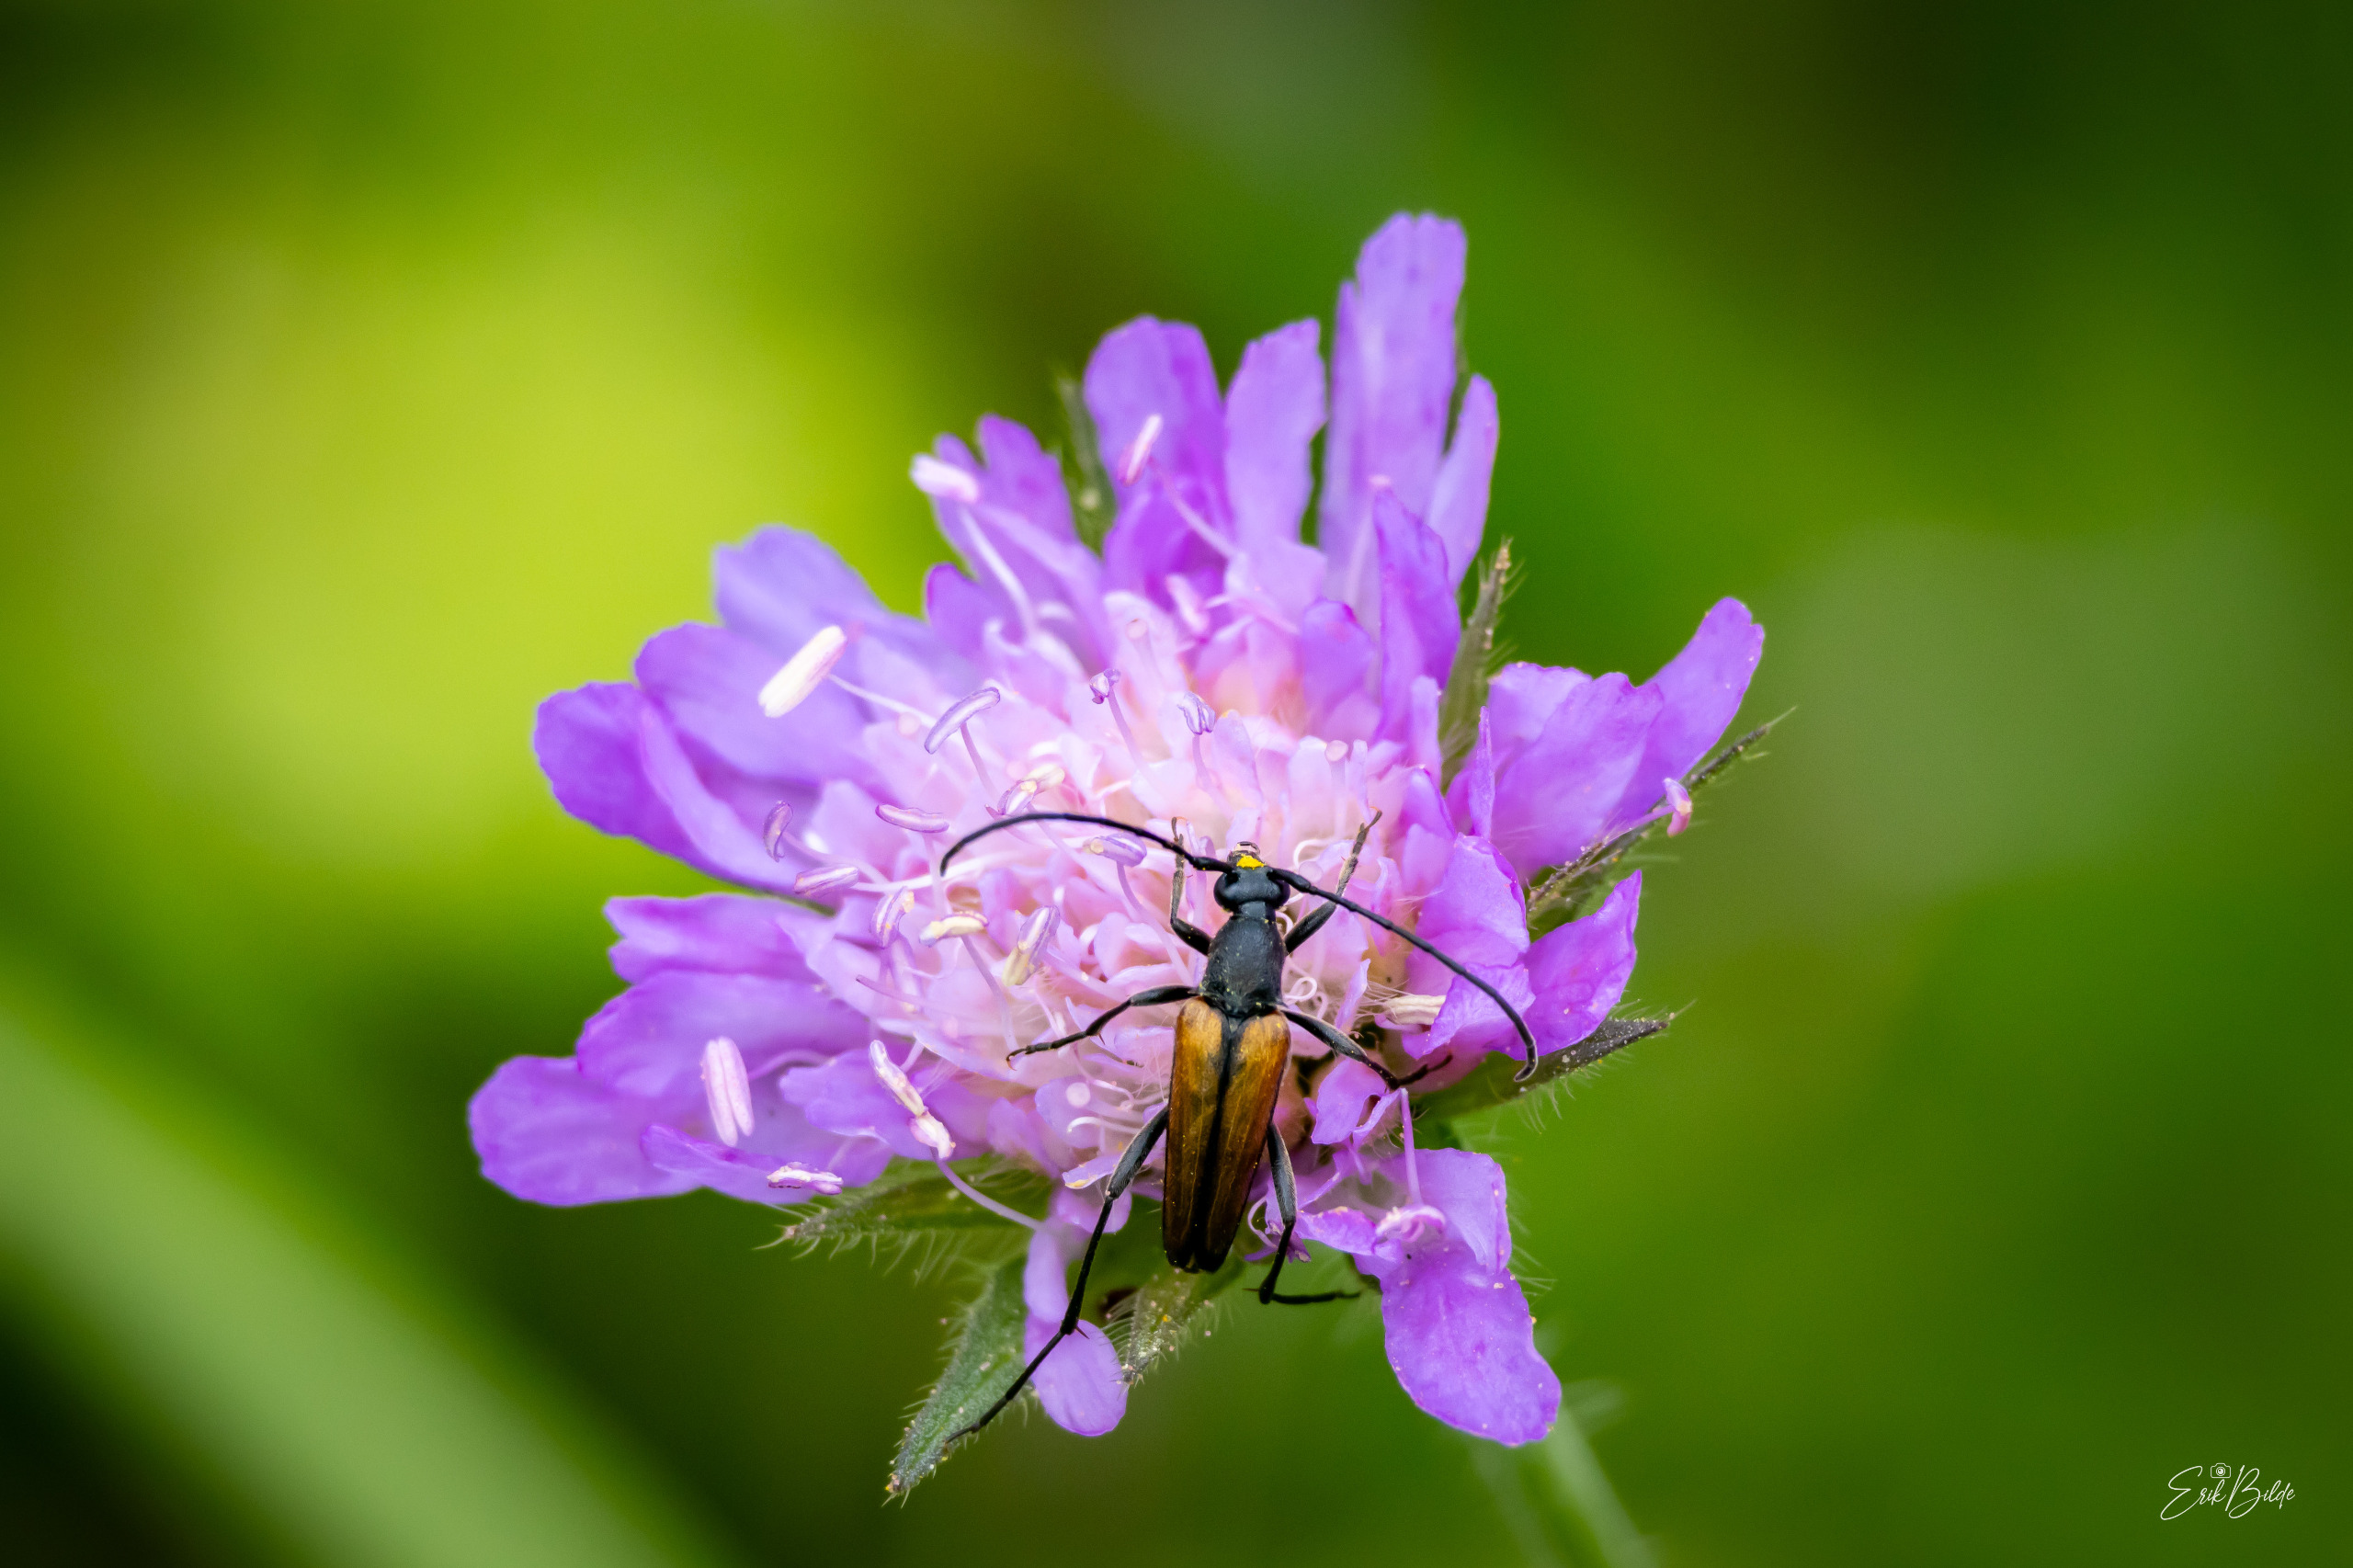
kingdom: Animalia
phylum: Arthropoda
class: Insecta
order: Coleoptera
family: Cerambycidae
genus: Stenurella
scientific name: Stenurella melanura
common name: Sortsømmet blomsterbuk
